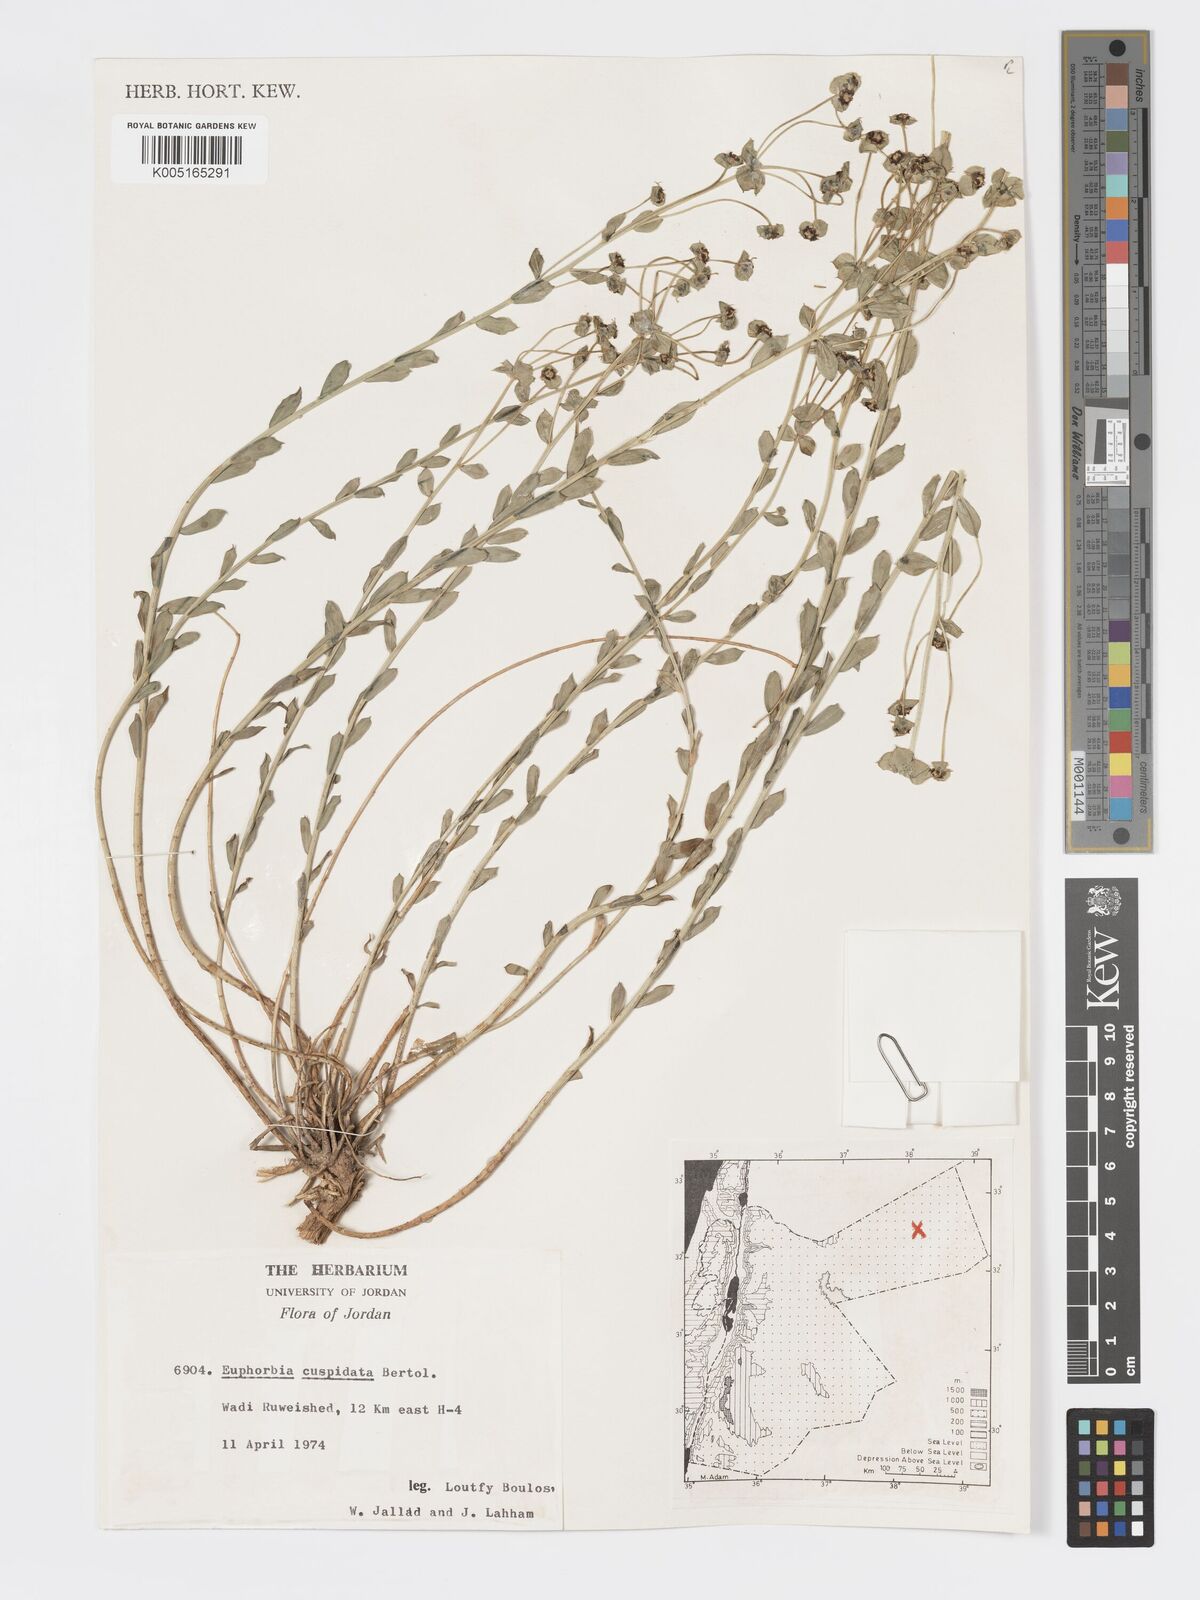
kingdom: Plantae
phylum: Tracheophyta
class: Magnoliopsida
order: Malpighiales
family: Euphorbiaceae
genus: Euphorbia
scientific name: Euphorbia
